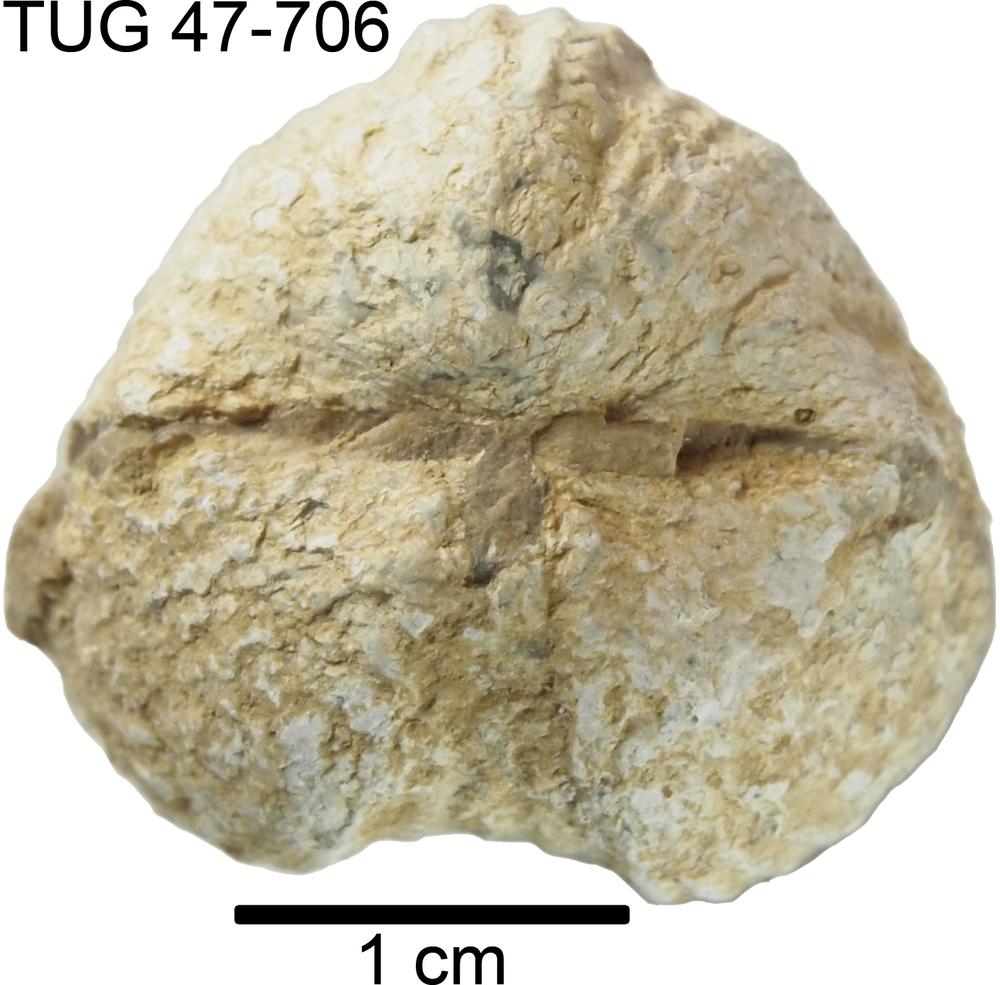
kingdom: Animalia
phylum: Brachiopoda
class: Rhynchonellata
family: Platystrophiidae
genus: Neoplatystrophia
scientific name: Neoplatystrophia Platystrophia lynx
